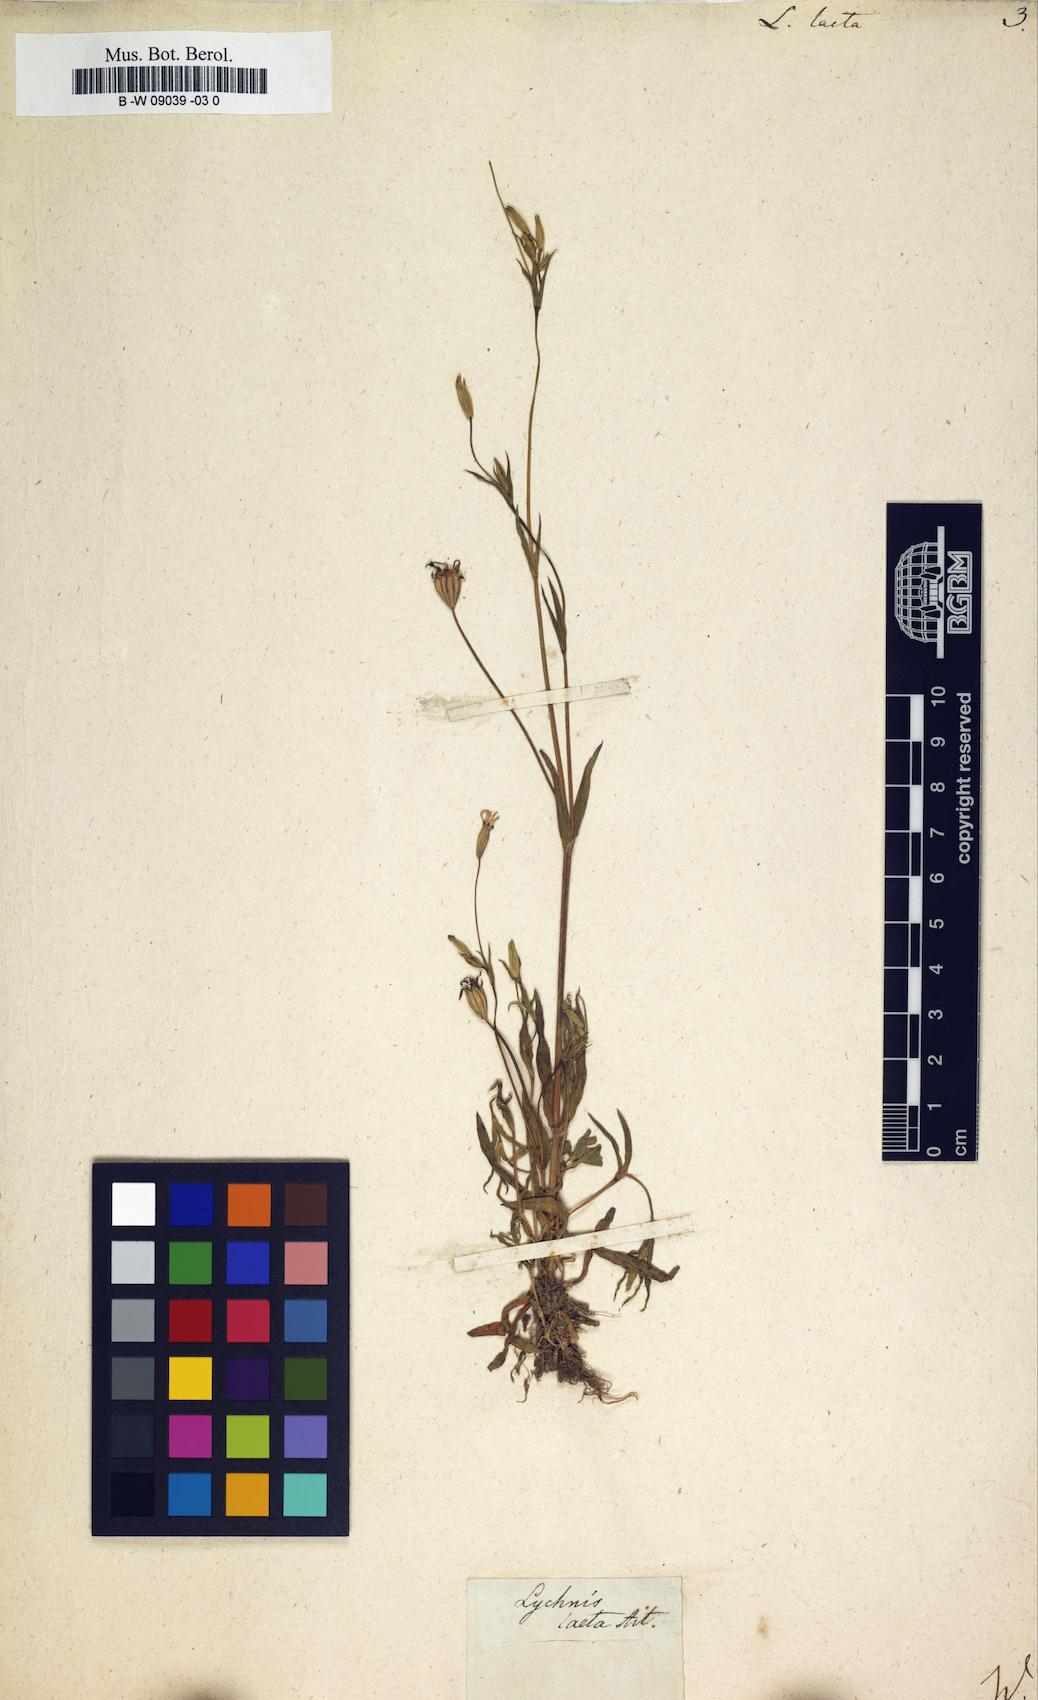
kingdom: Plantae
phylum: Tracheophyta
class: Magnoliopsida
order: Caryophyllales
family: Caryophyllaceae
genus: Eudianthe
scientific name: Eudianthe laeta
